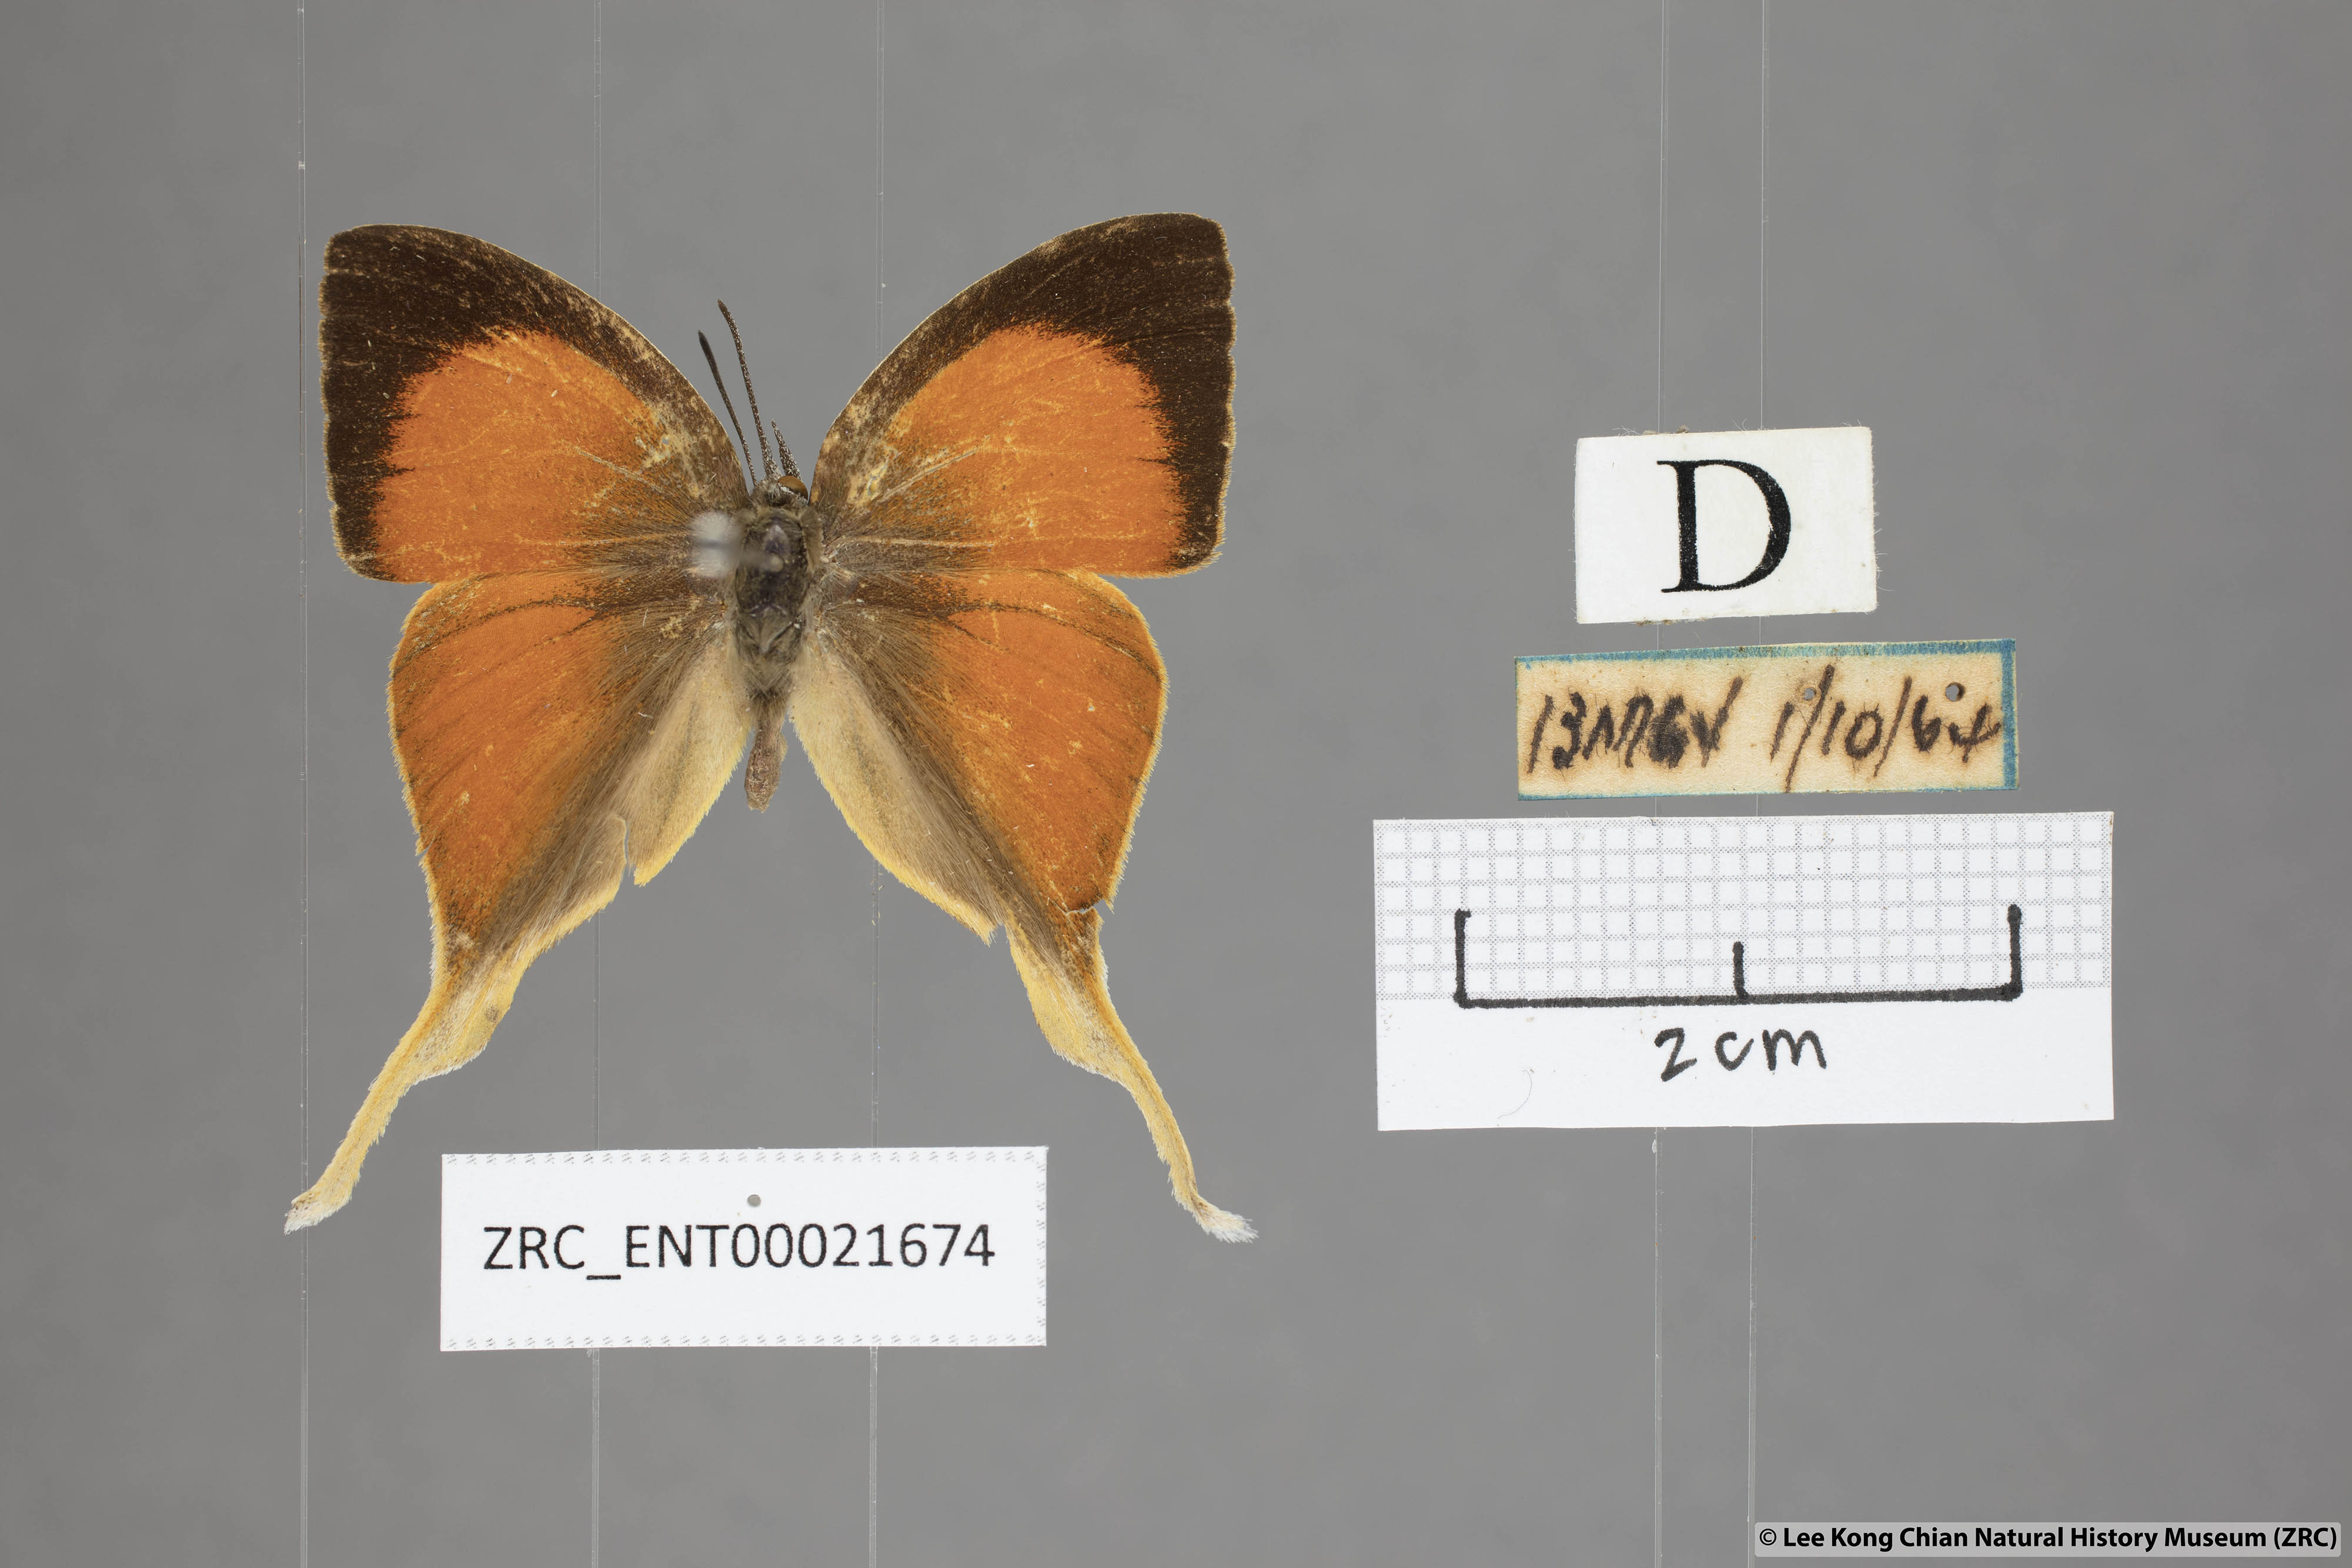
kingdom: Animalia
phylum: Arthropoda
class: Insecta
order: Lepidoptera
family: Lycaenidae
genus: Loxura
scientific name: Loxura cassiopeia
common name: Malayan yamfly
